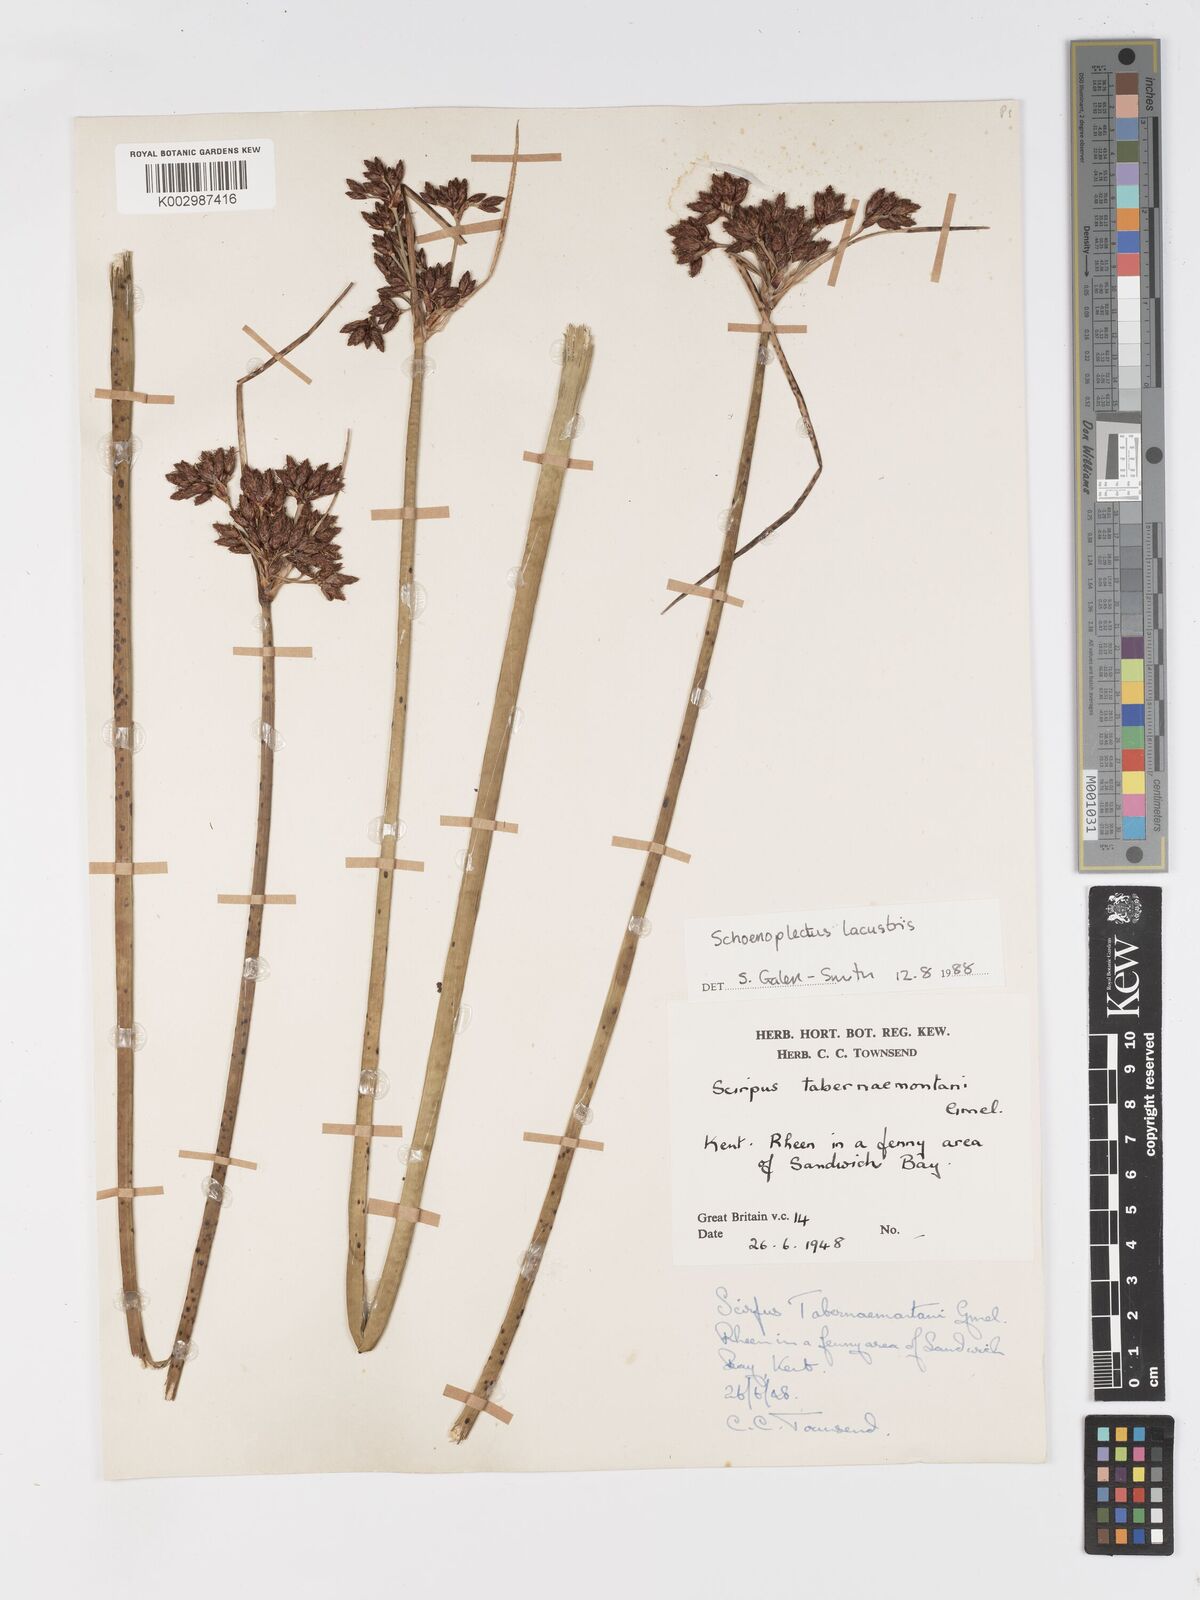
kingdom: Plantae
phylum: Tracheophyta
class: Liliopsida
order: Poales
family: Cyperaceae
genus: Schoenoplectus
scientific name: Schoenoplectus lacustris
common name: Common club-rush
